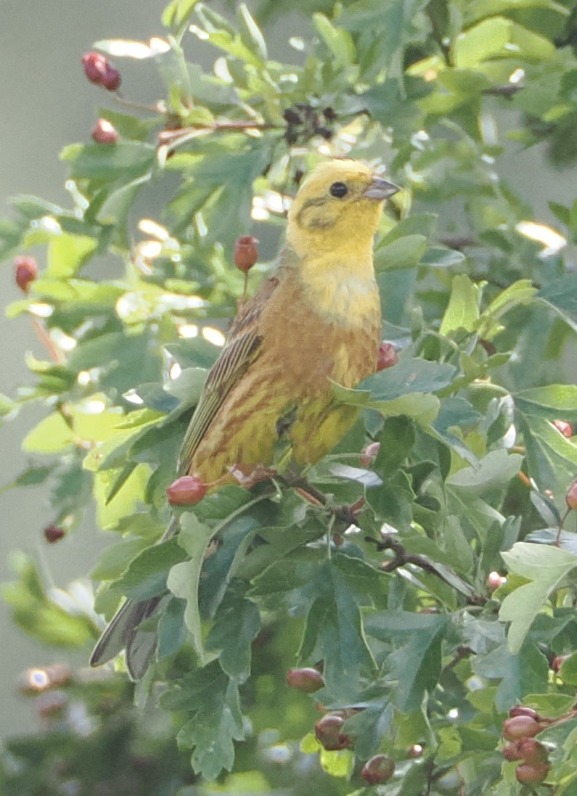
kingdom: Animalia
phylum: Chordata
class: Aves
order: Passeriformes
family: Emberizidae
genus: Emberiza
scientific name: Emberiza citrinella
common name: Gulspurv
